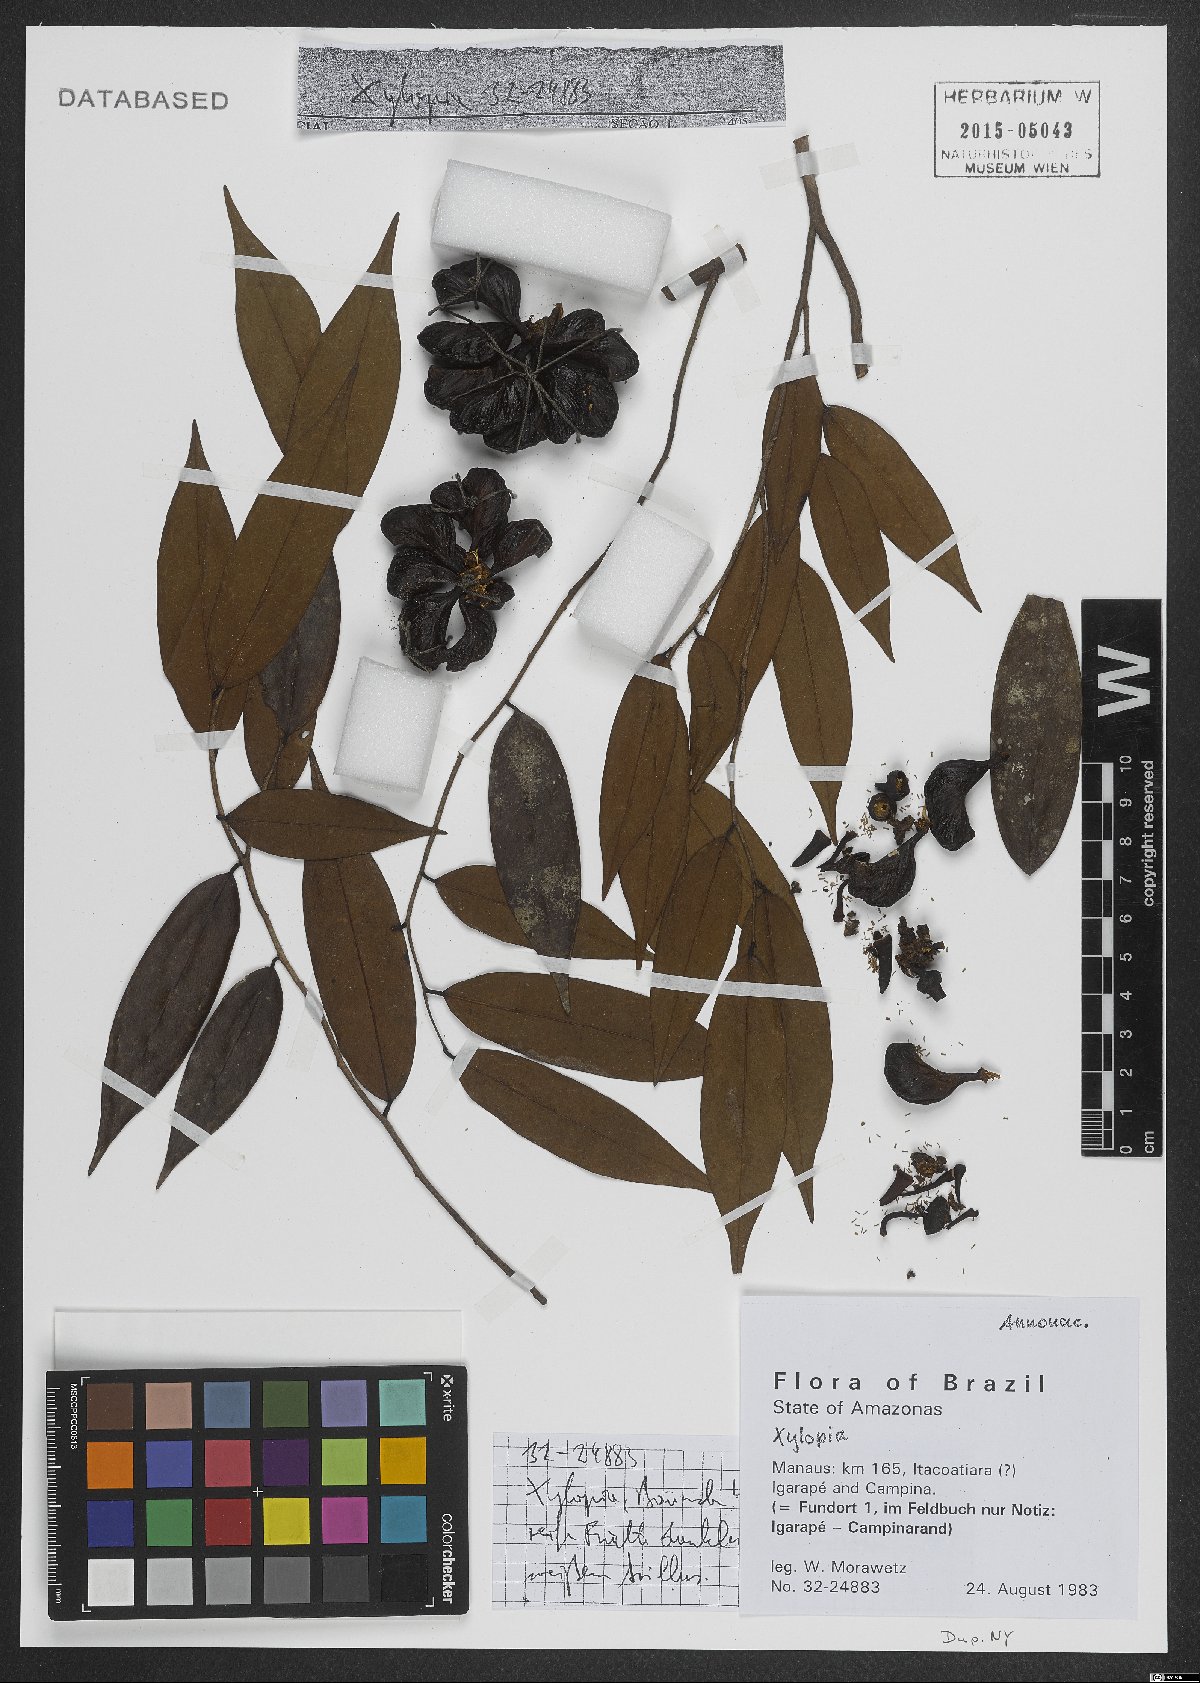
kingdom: Plantae
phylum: Tracheophyta
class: Magnoliopsida
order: Magnoliales
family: Annonaceae
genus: Xylopia
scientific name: Xylopia
